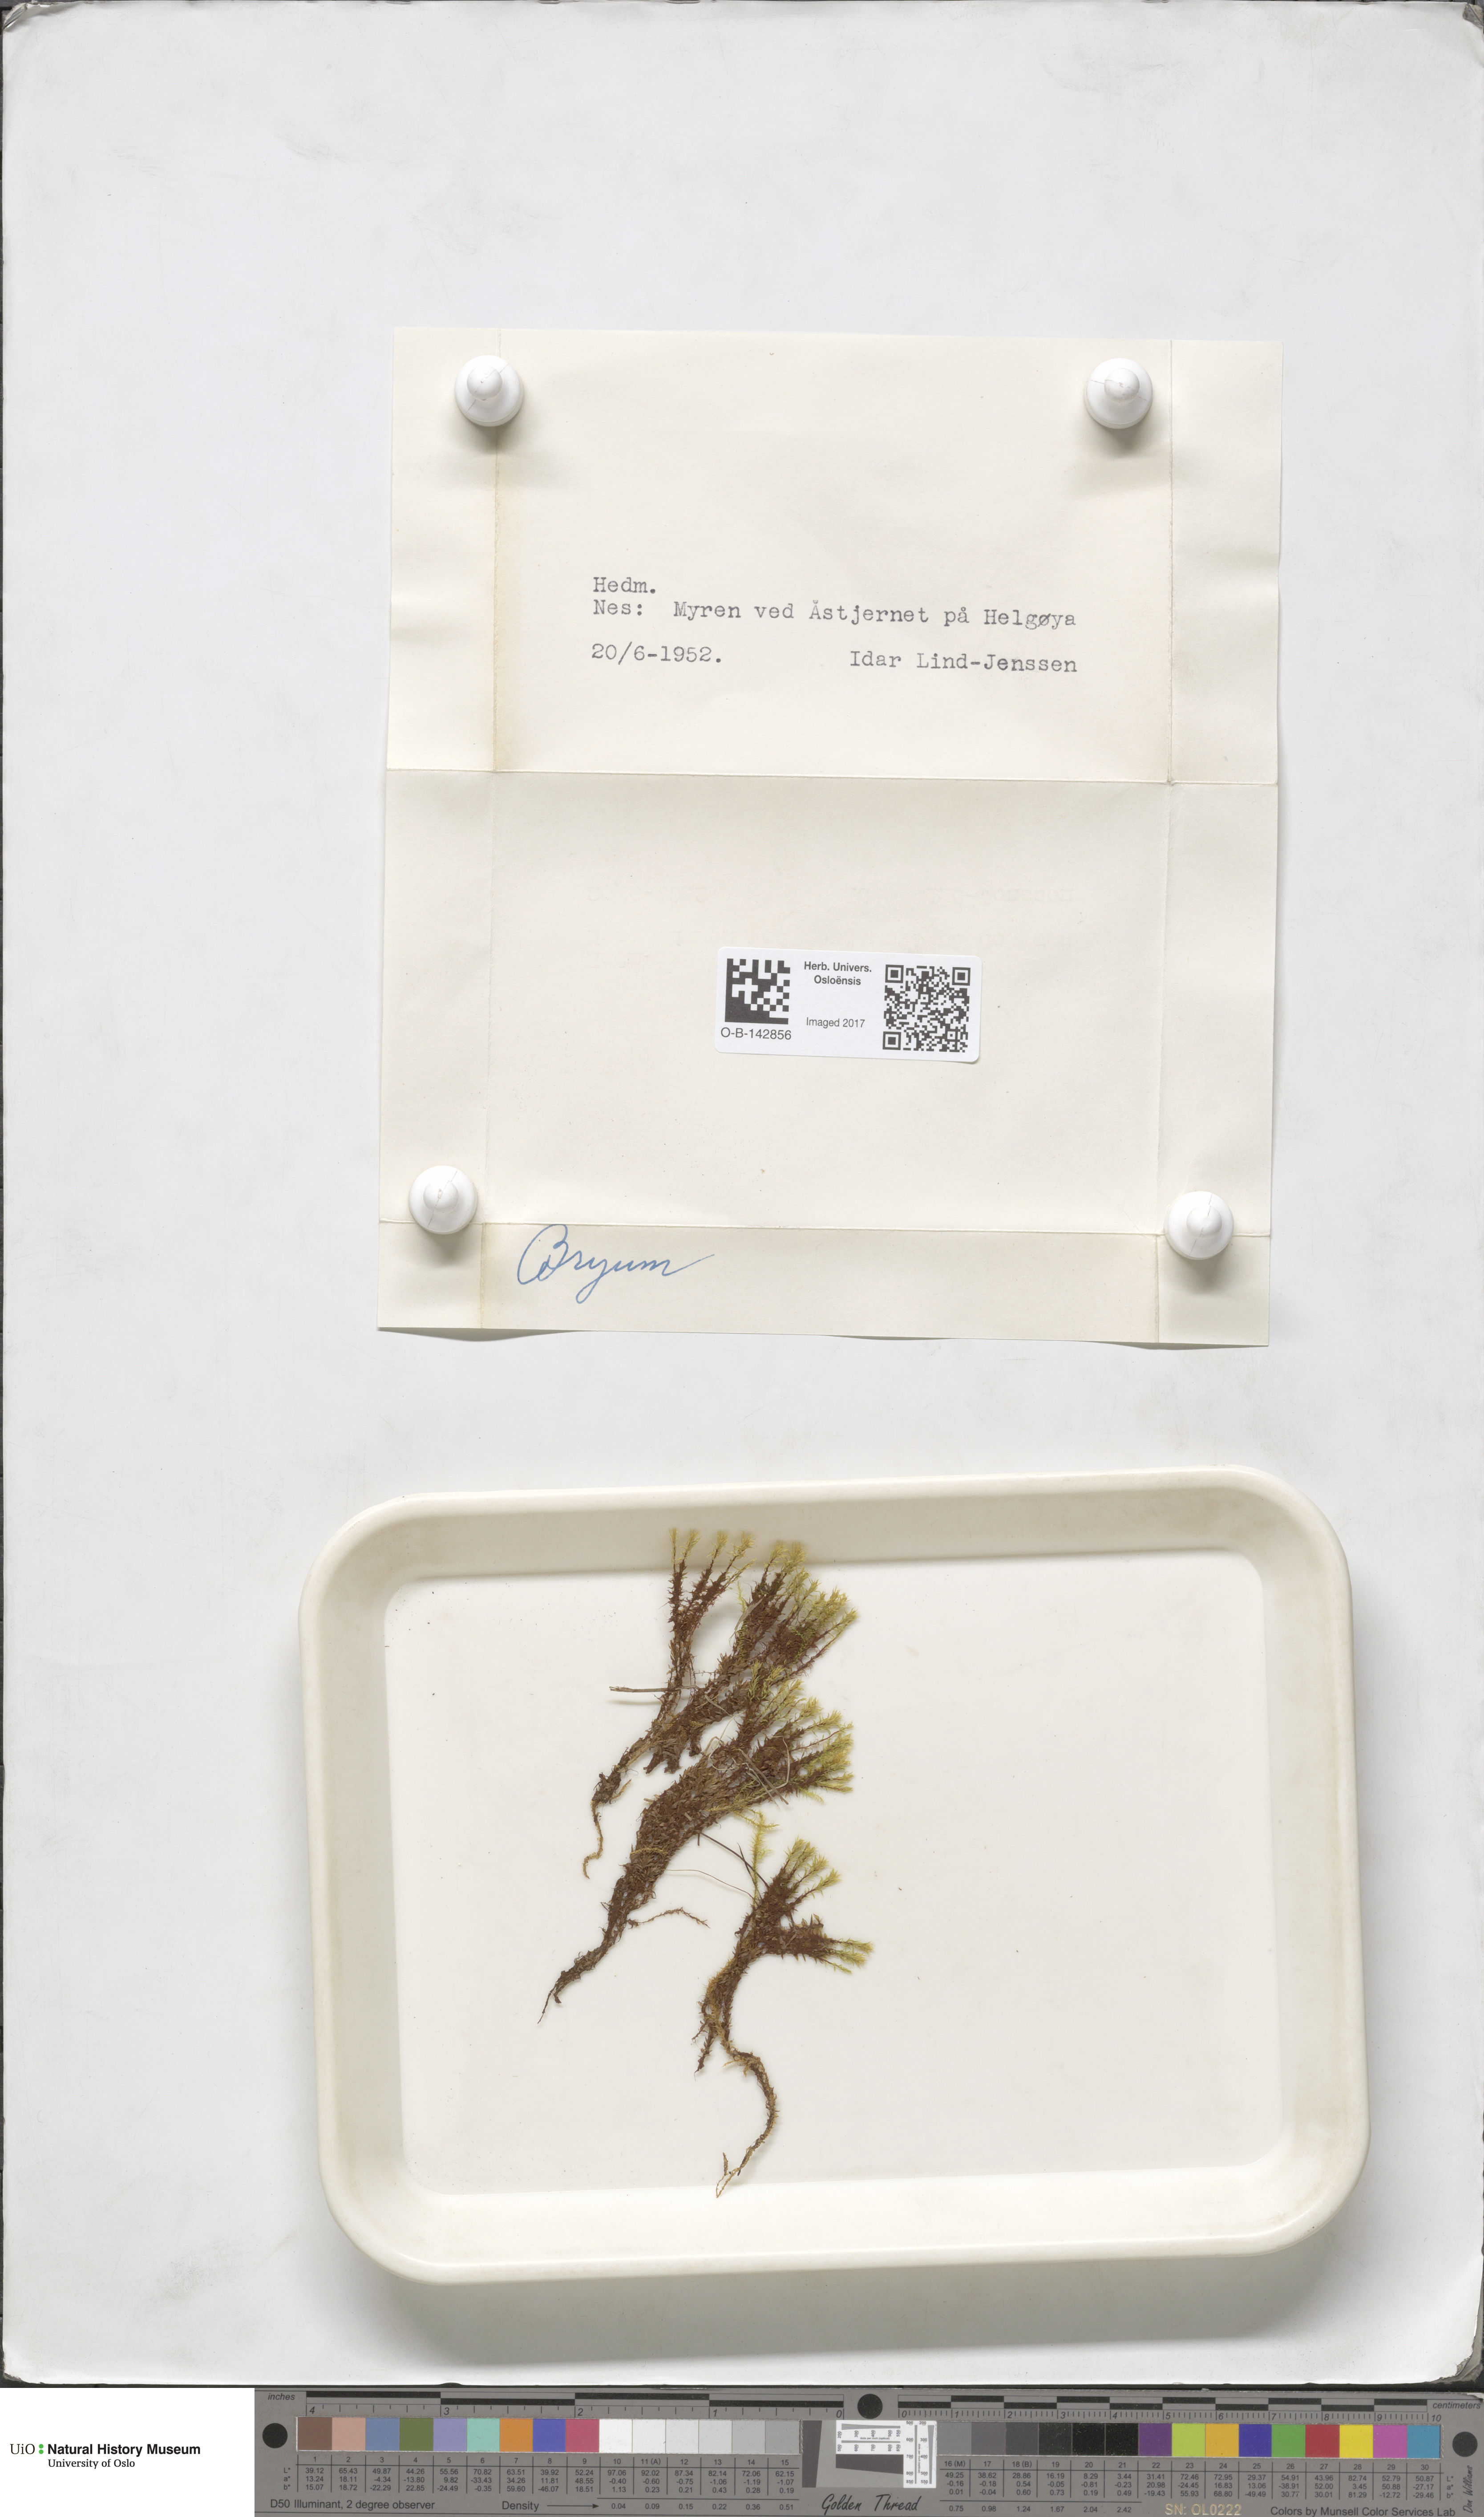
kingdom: Plantae
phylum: Bryophyta
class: Bryopsida
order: Bryales
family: Bryaceae
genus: Bryum
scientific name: Bryum
